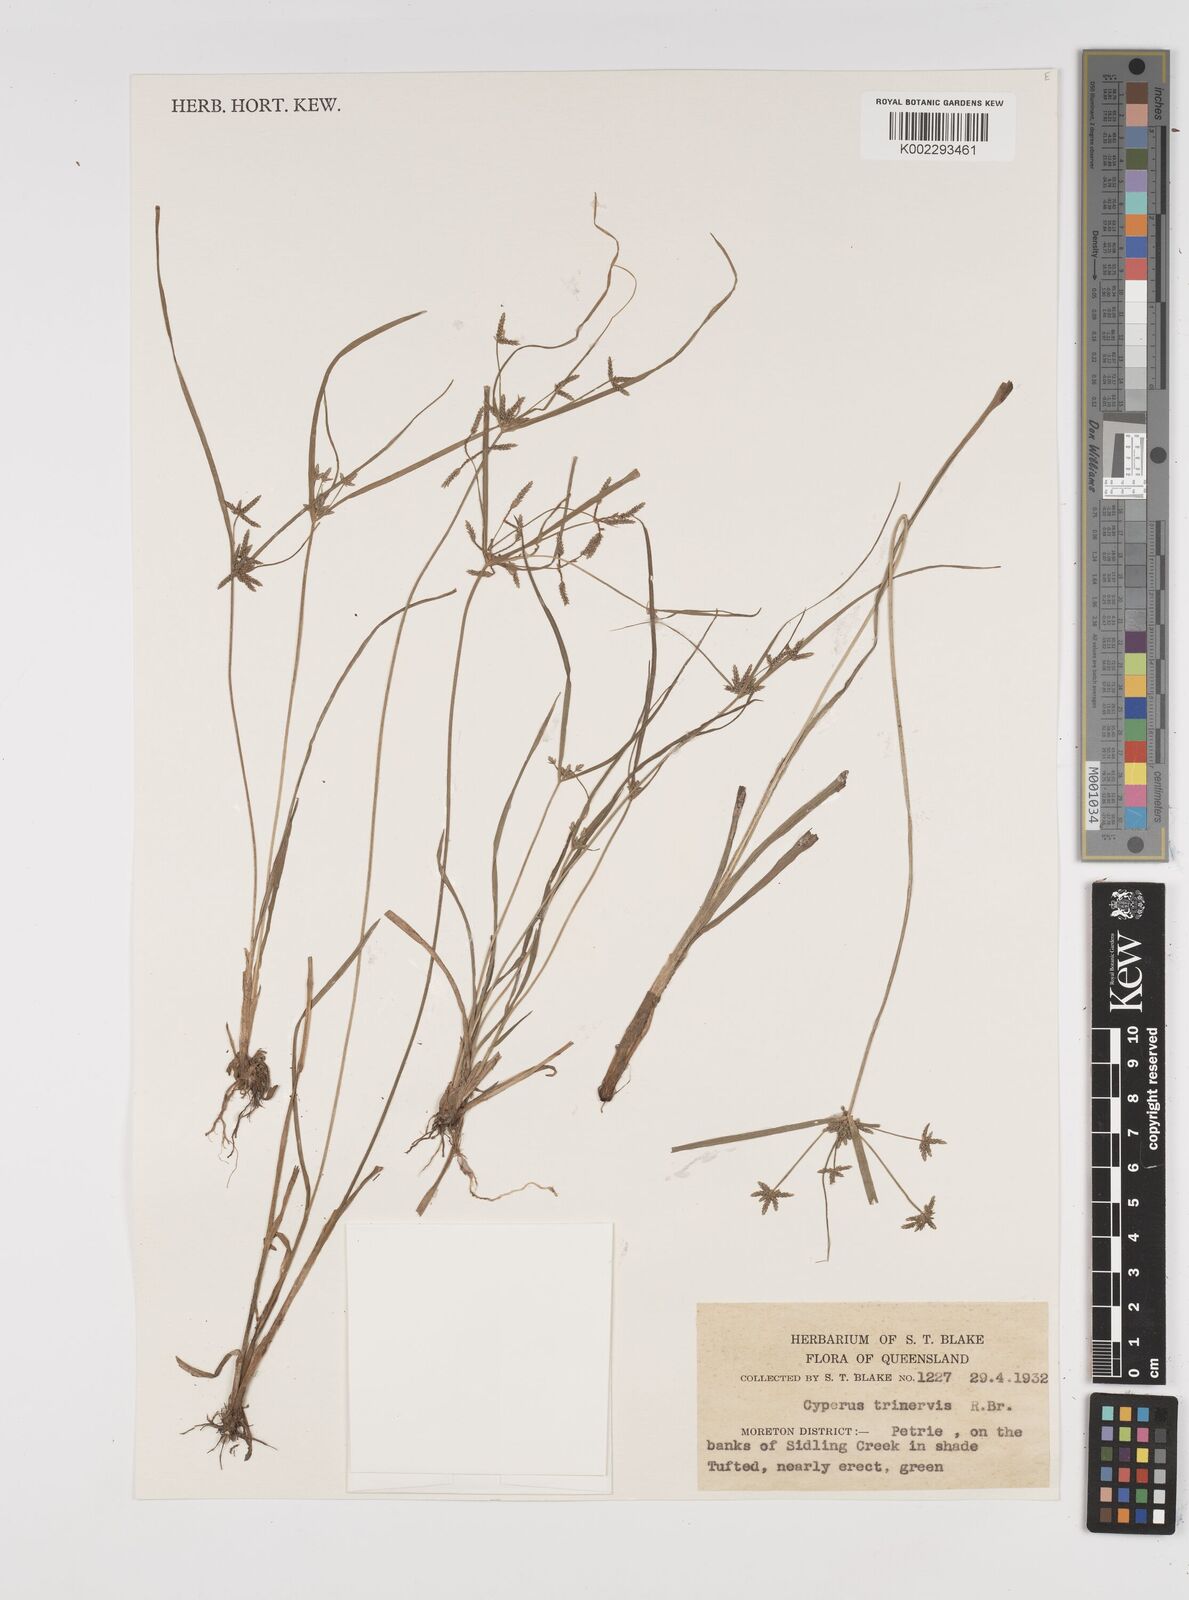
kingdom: Plantae
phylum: Tracheophyta
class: Liliopsida
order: Poales
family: Cyperaceae
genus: Cyperus
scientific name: Cyperus trinervis
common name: Australian flatsedge
